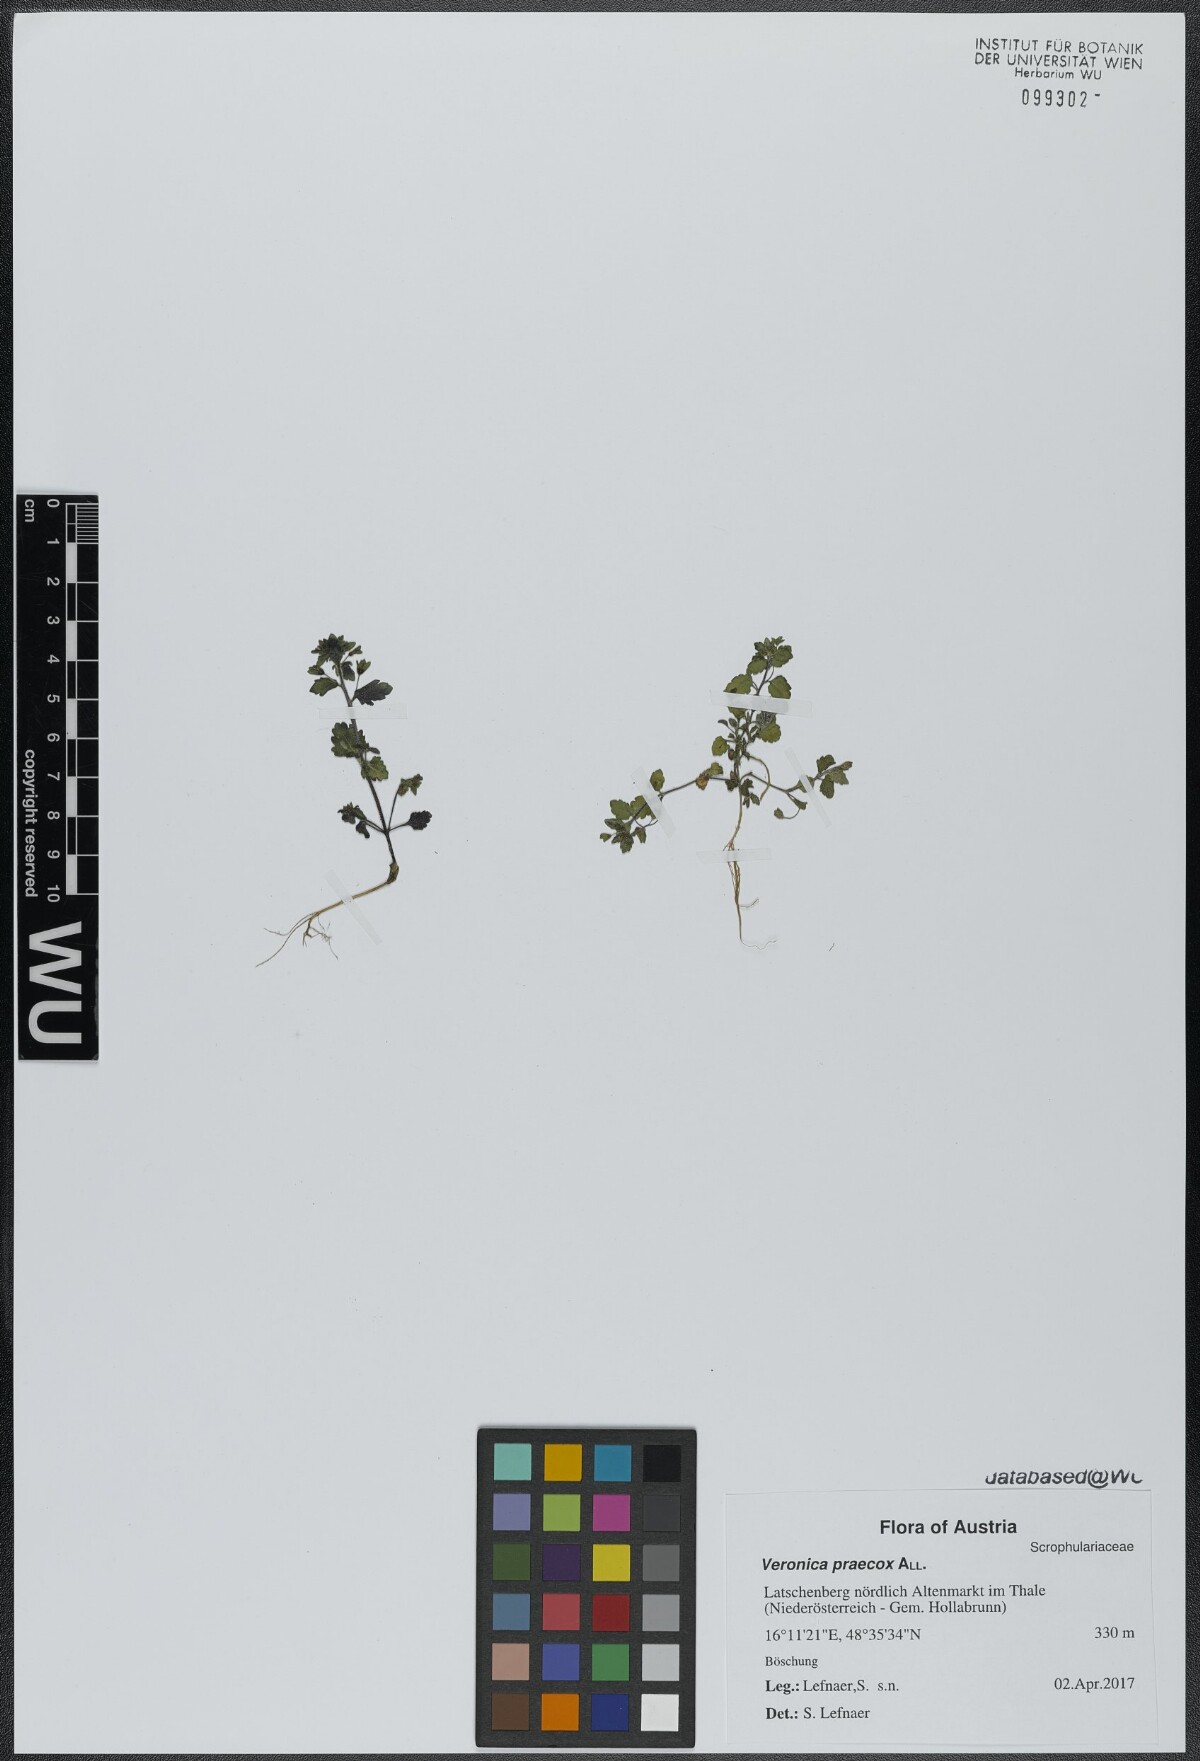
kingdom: Plantae
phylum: Tracheophyta
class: Magnoliopsida
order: Lamiales
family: Plantaginaceae
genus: Veronica
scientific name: Veronica praecox
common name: Breckland speedwell
